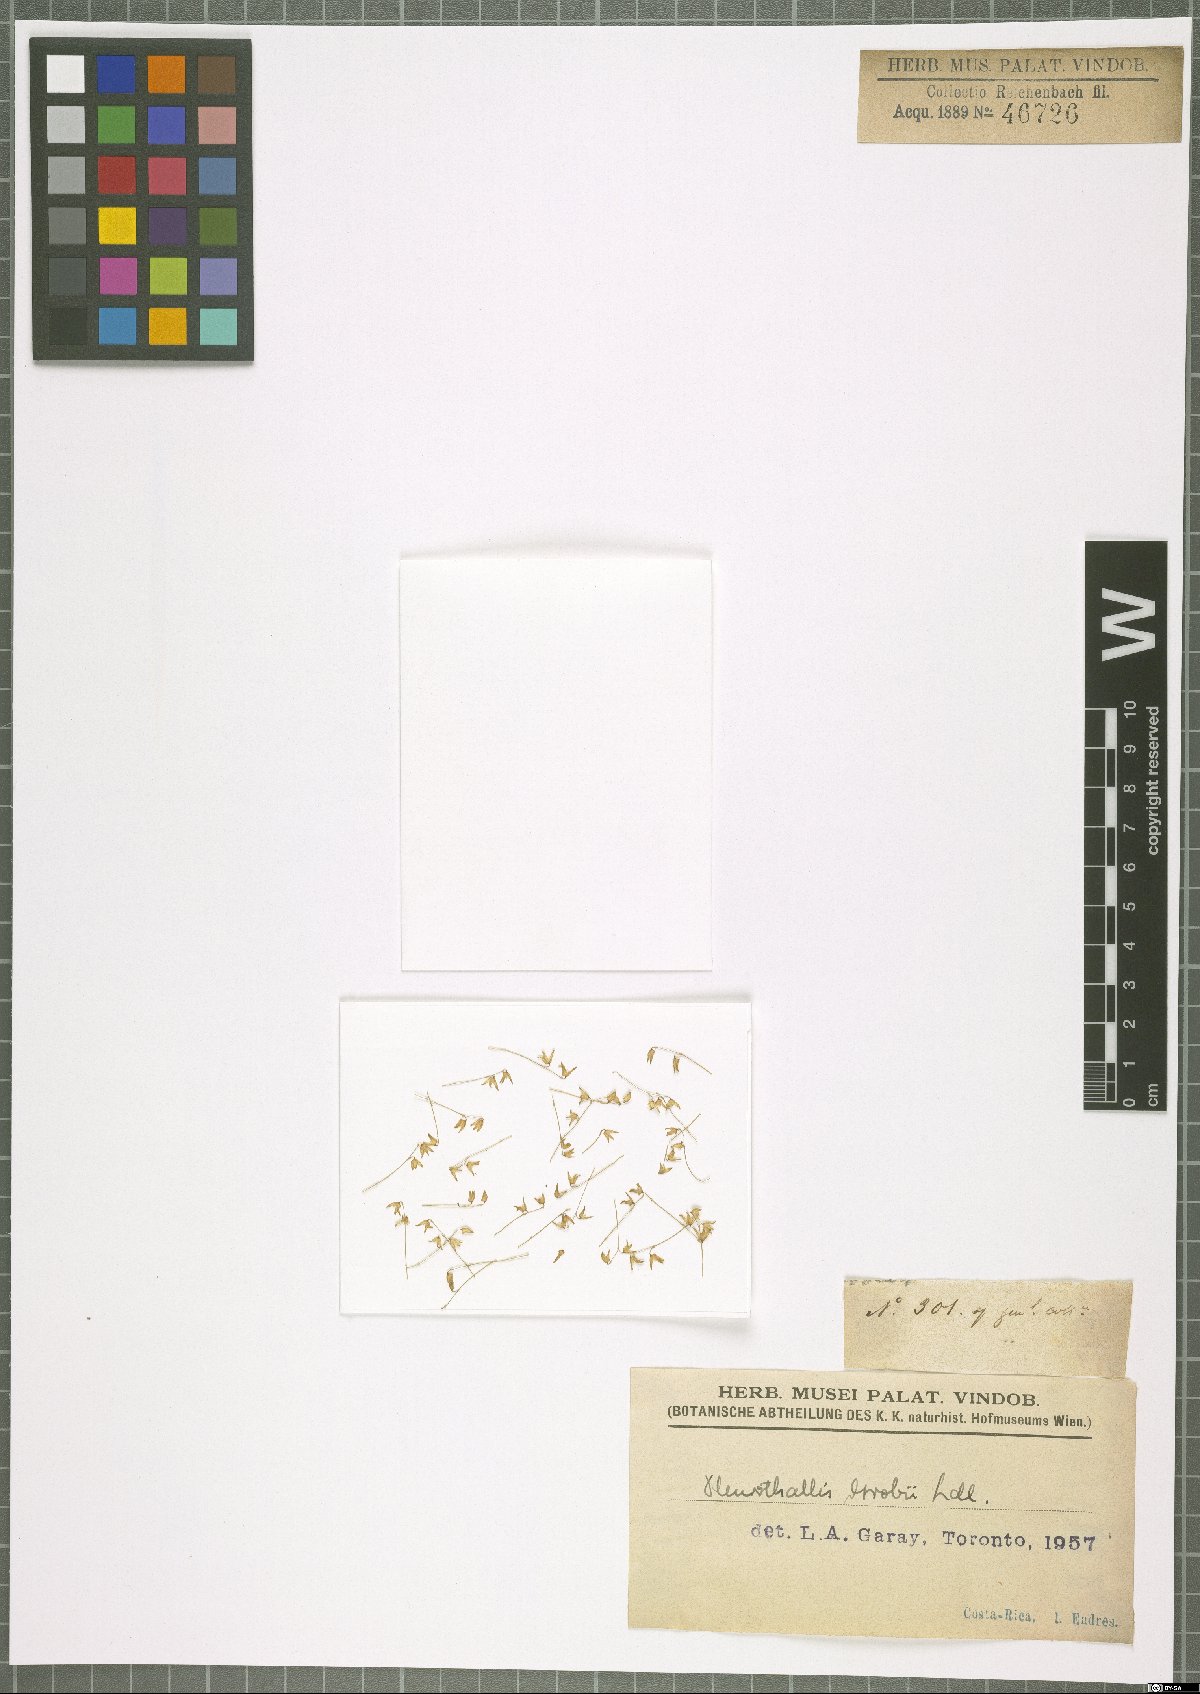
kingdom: Plantae
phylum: Tracheophyta
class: Liliopsida
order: Asparagales
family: Orchidaceae
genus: Specklinia
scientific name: Specklinia grobyi
